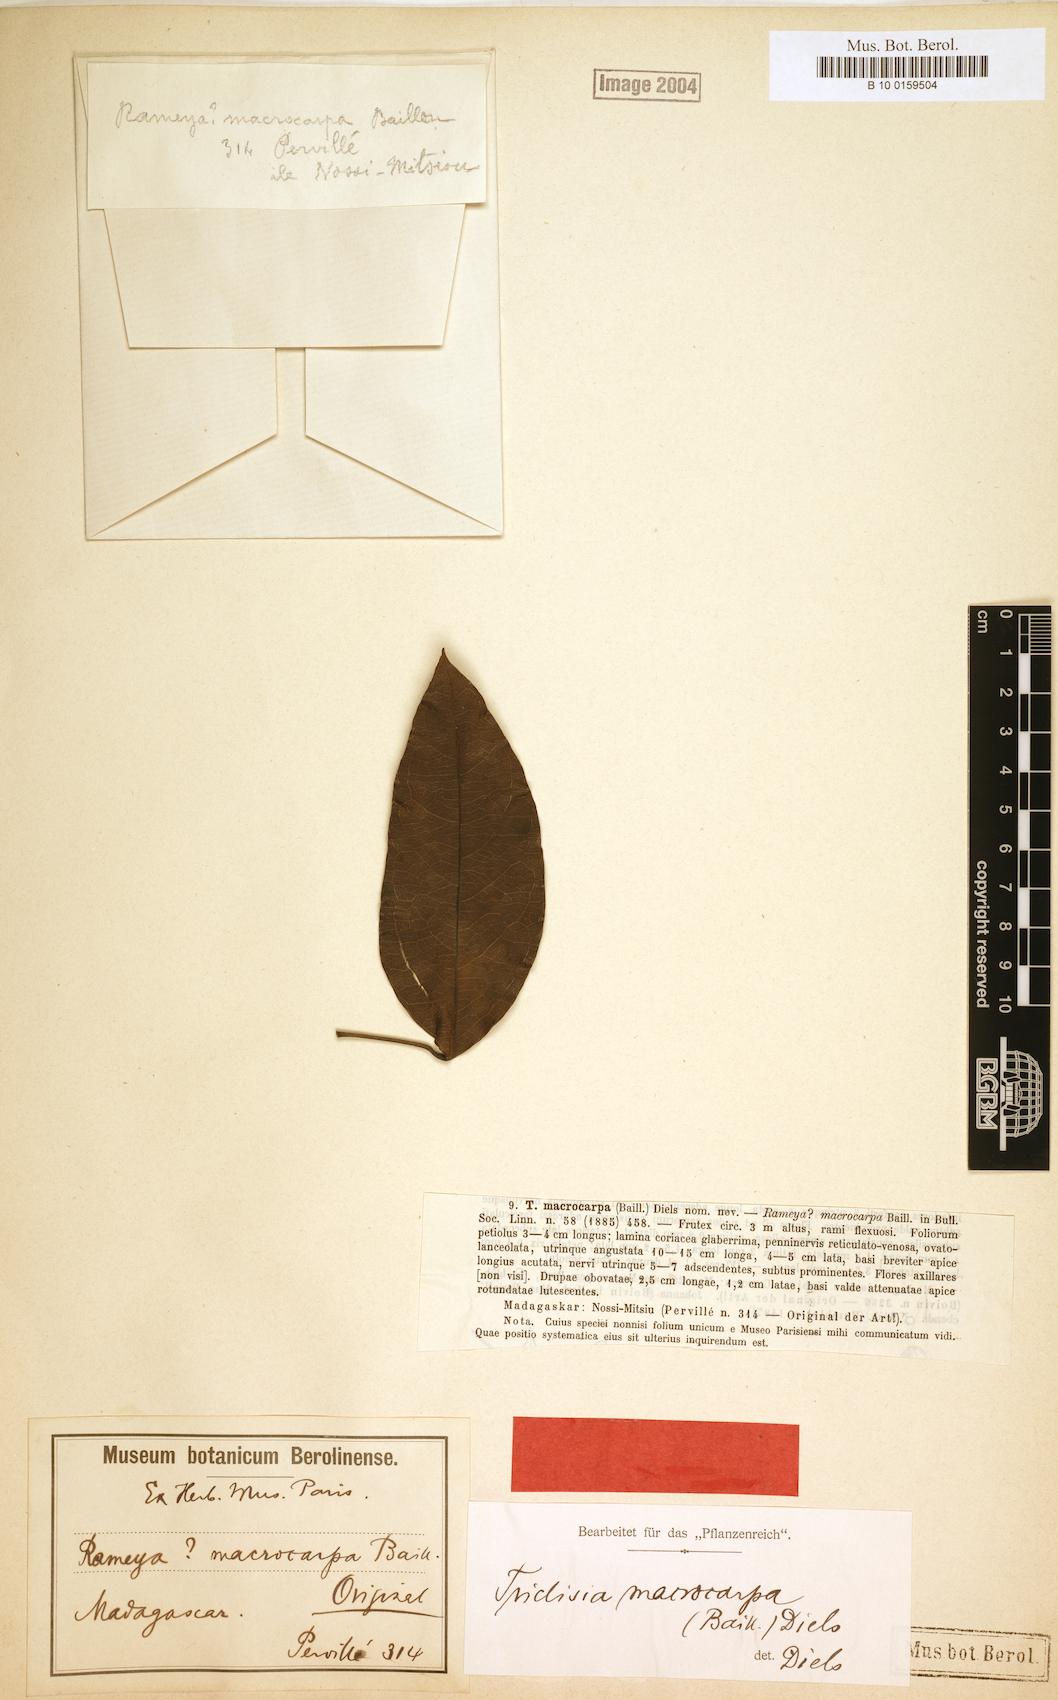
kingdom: Plantae
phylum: Tracheophyta
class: Magnoliopsida
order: Ranunculales
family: Menispermaceae
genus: Triclisia
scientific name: Triclisia macrocarpa
